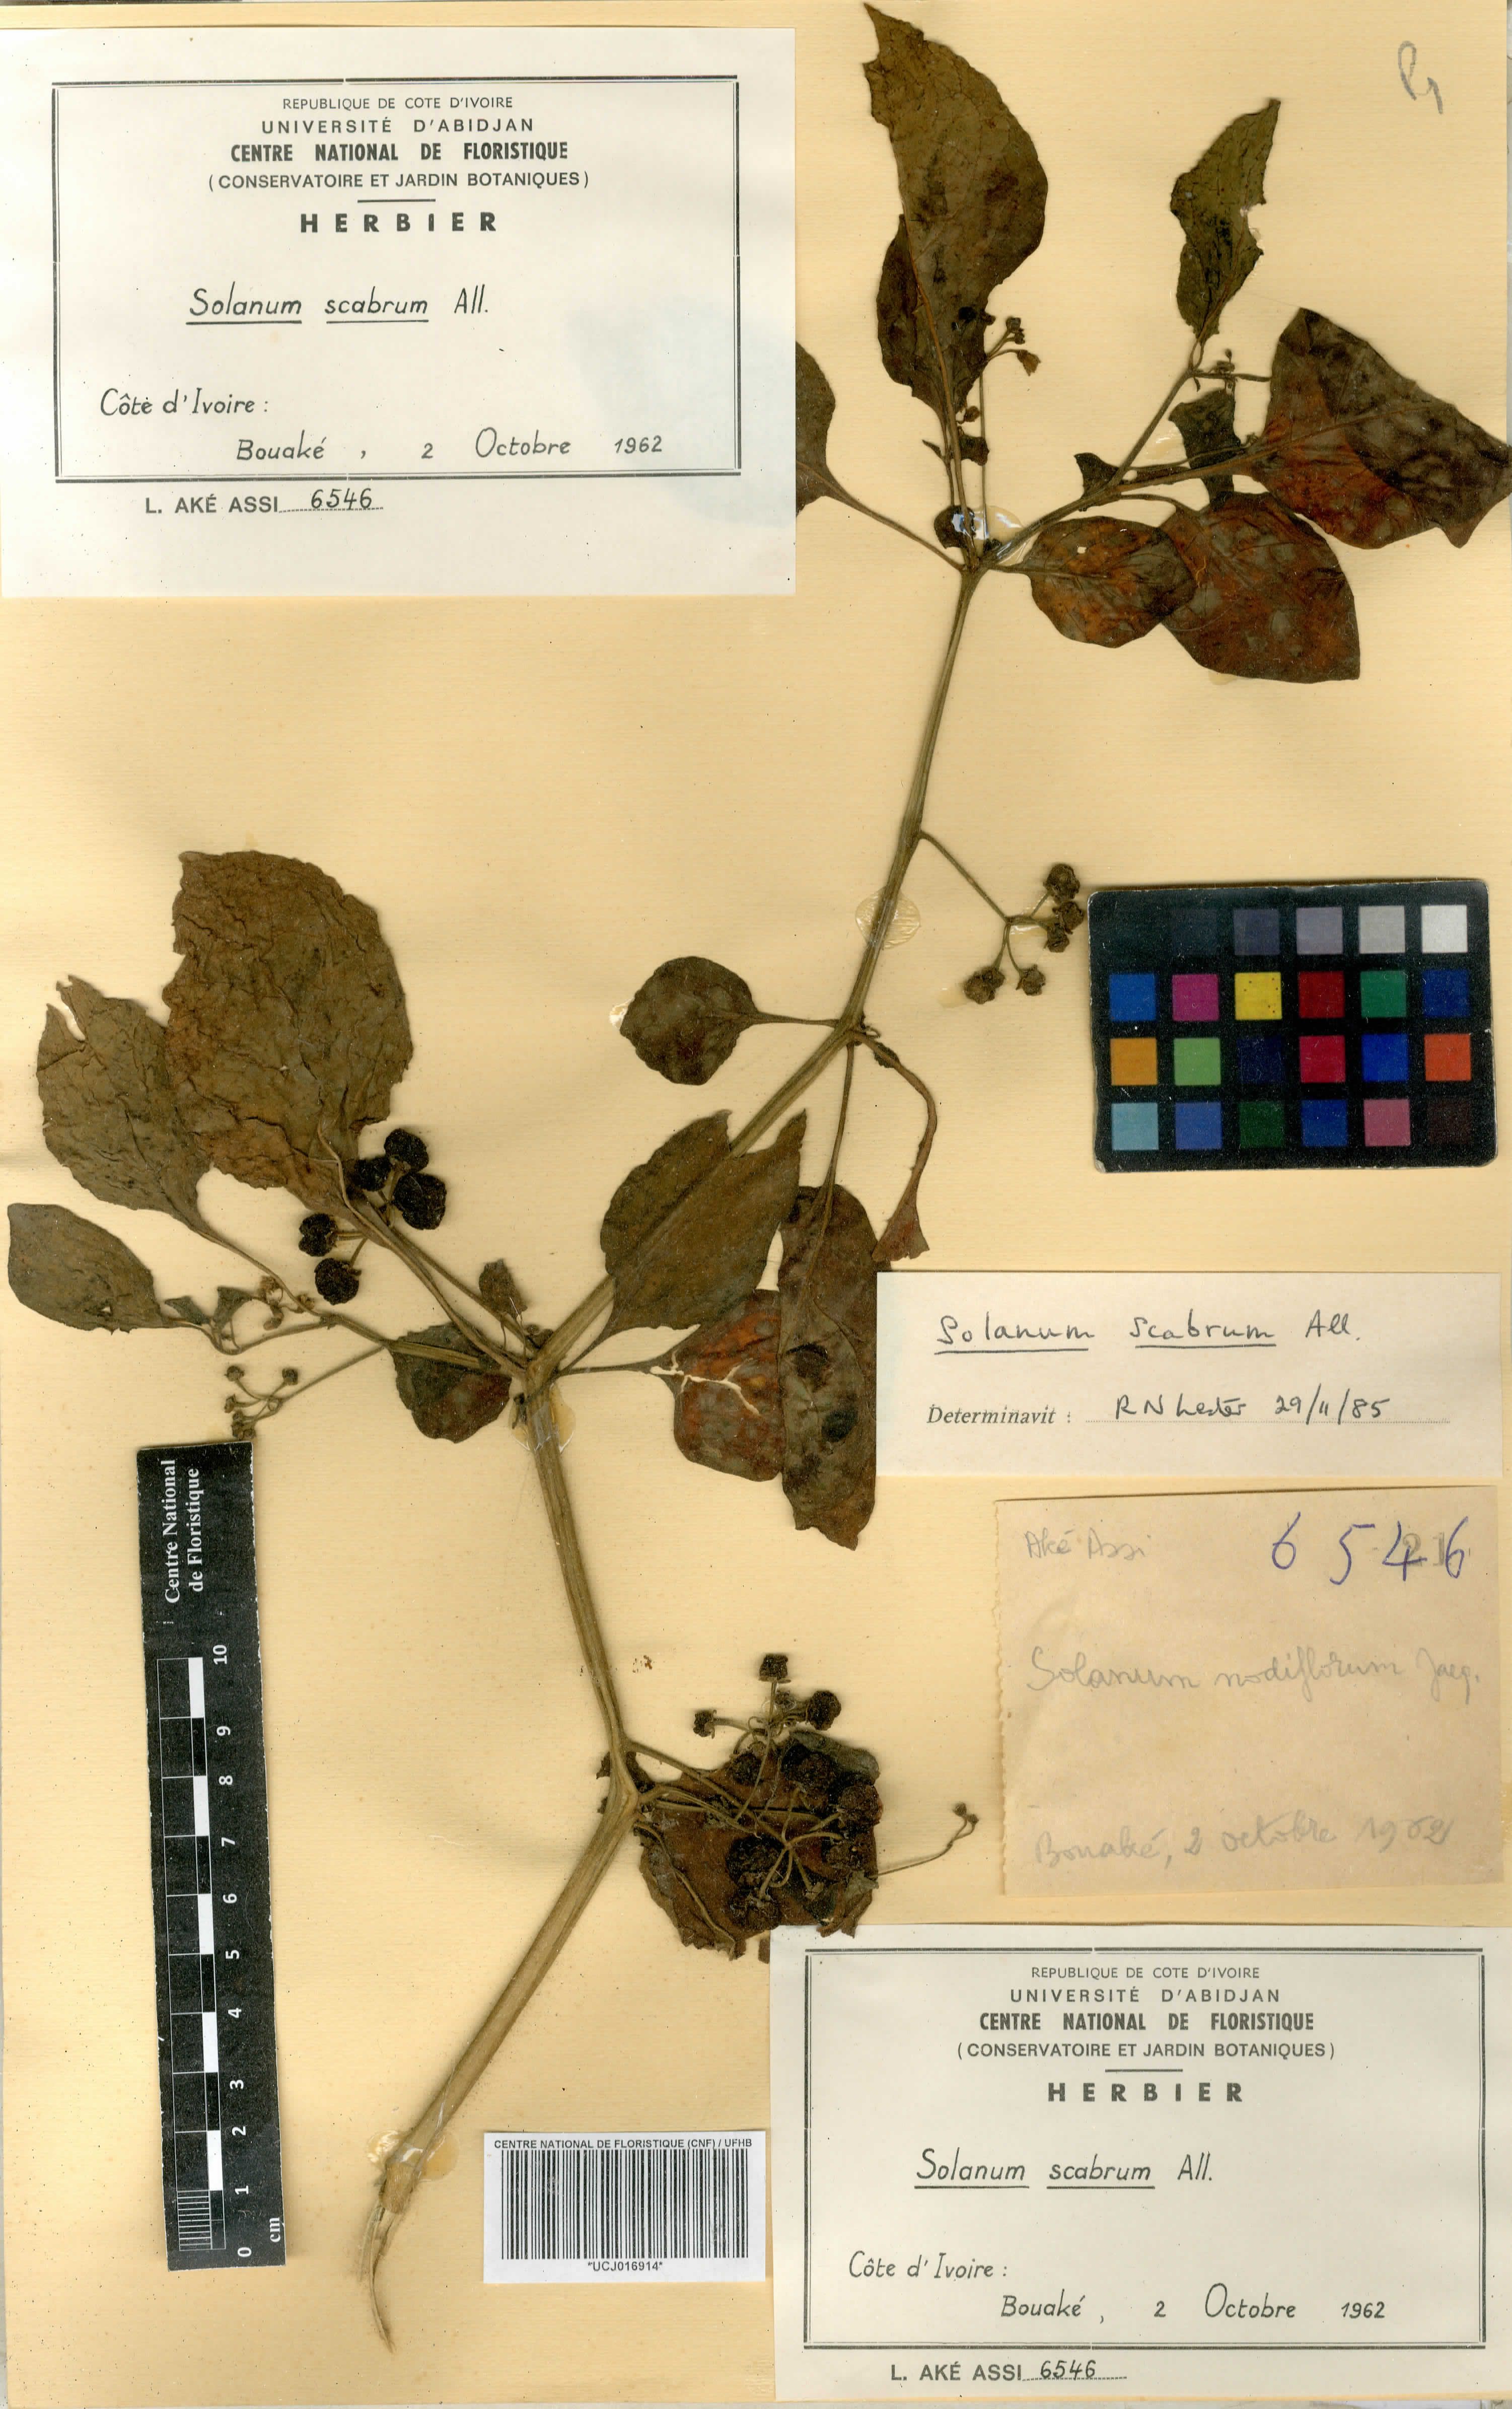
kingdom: Plantae
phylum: Tracheophyta
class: Magnoliopsida
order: Solanales
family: Solanaceae
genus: Solanum
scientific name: Solanum rugosum
